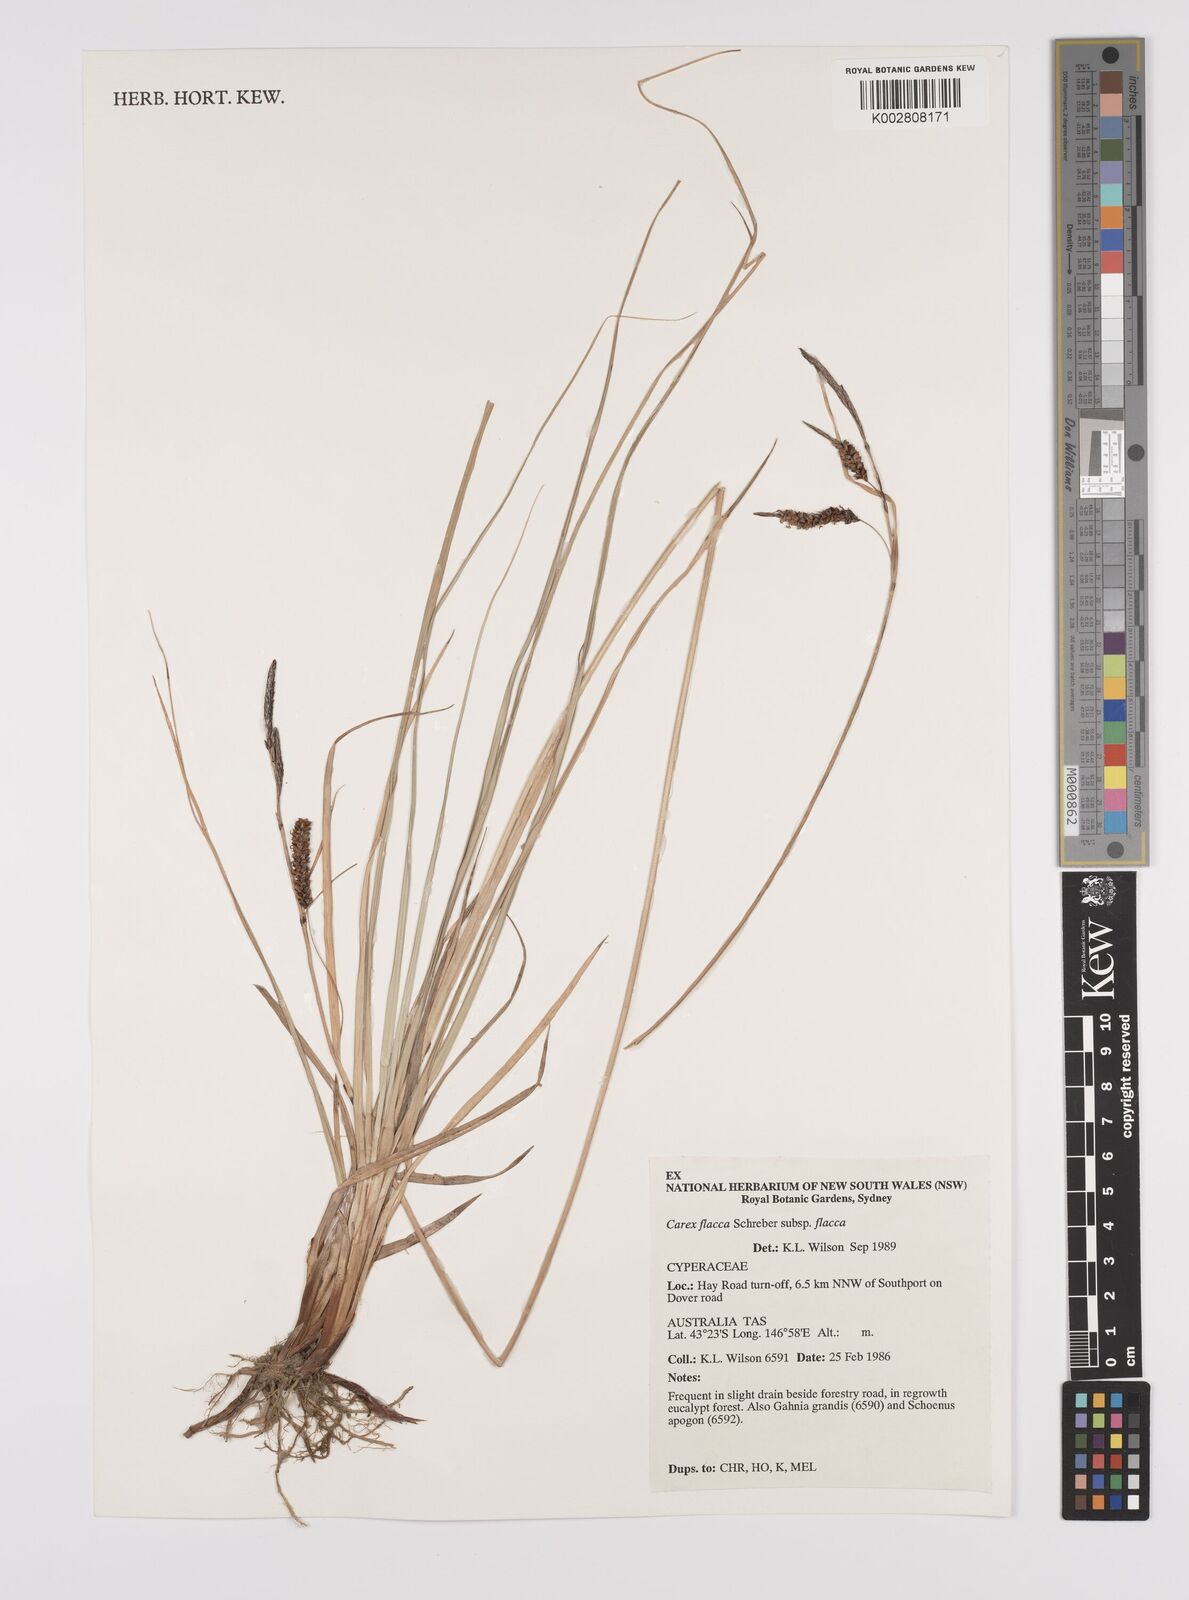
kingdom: Plantae
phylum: Tracheophyta
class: Liliopsida
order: Poales
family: Cyperaceae
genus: Carex
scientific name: Carex flacca
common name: Glaucous sedge
